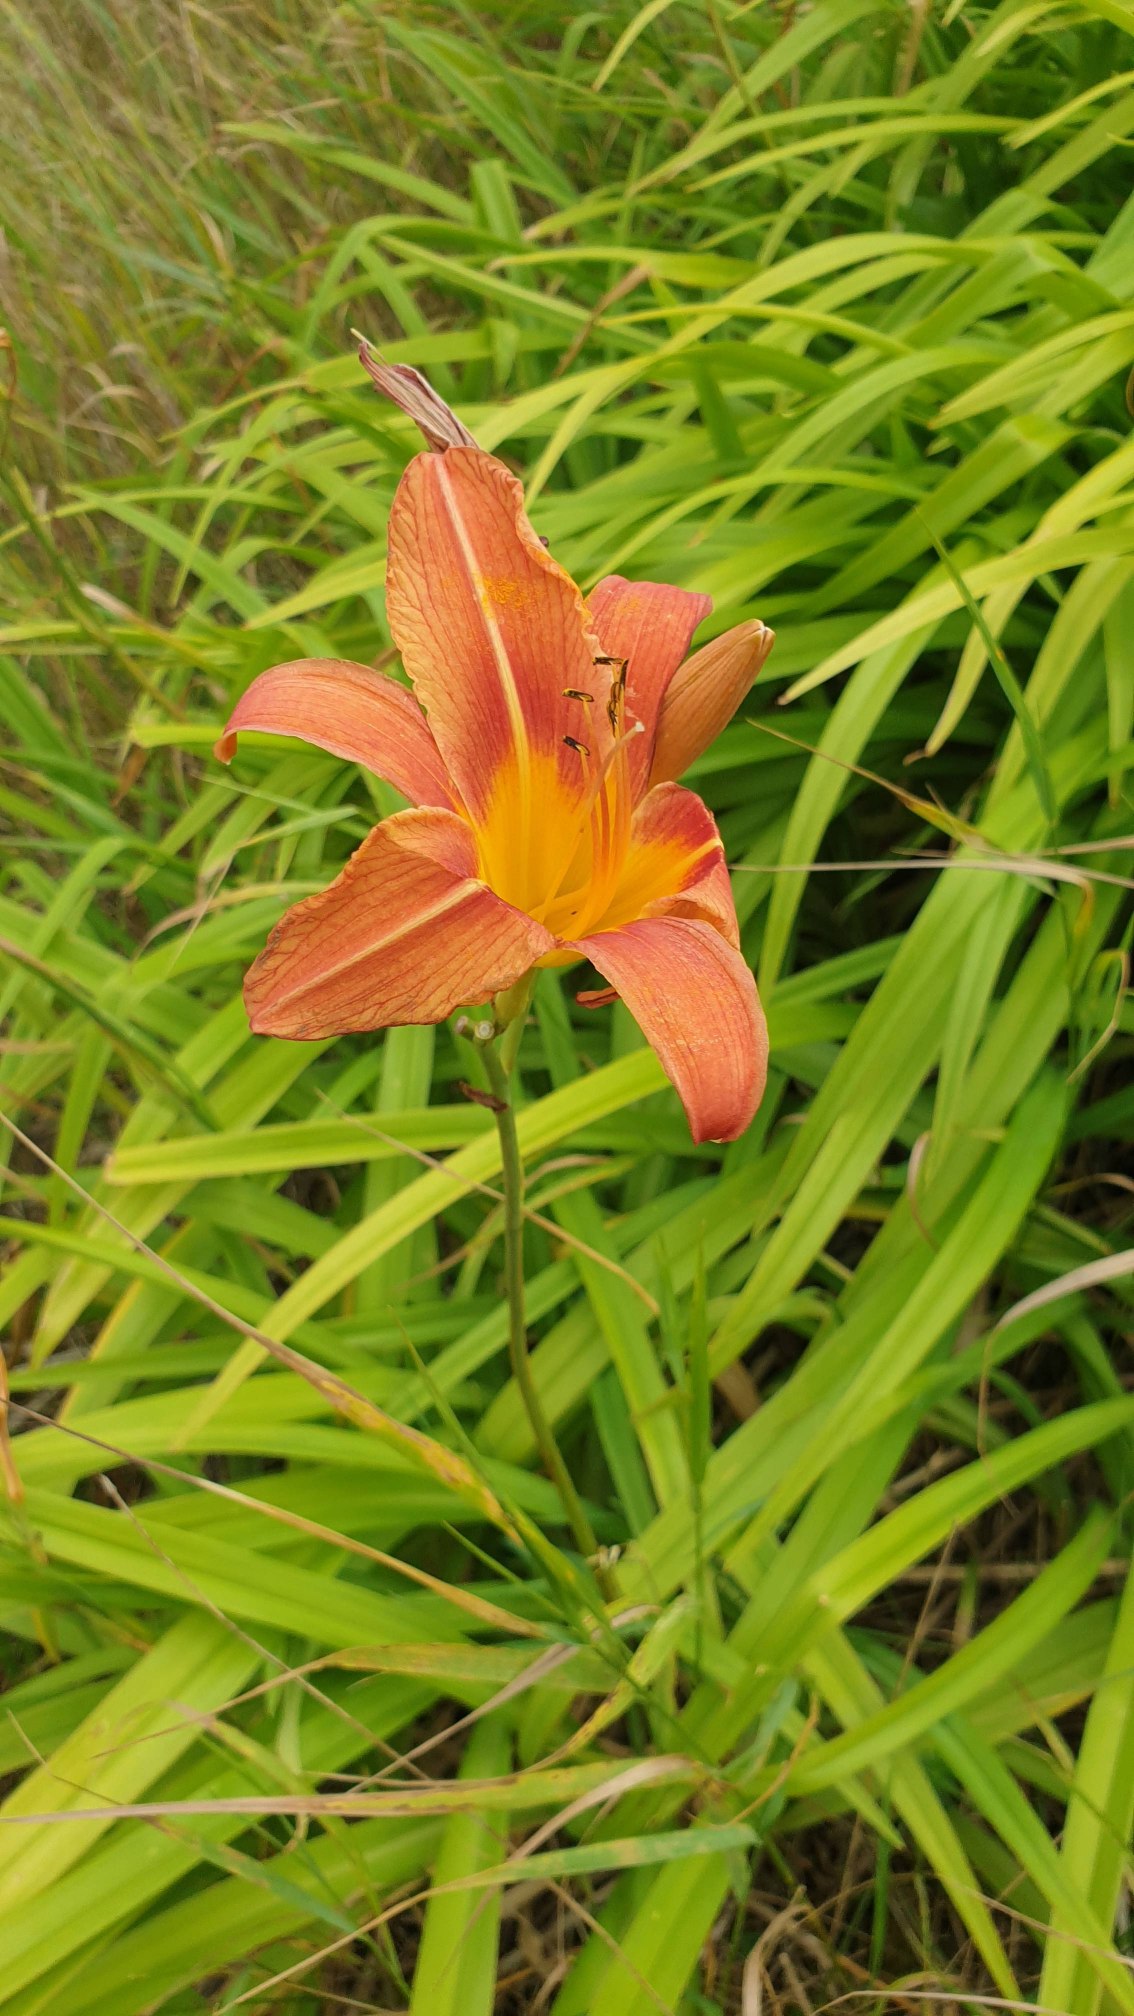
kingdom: Plantae
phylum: Tracheophyta
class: Liliopsida
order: Asparagales
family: Asphodelaceae
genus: Hemerocallis
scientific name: Hemerocallis fulva
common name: Rødgul daglilje
